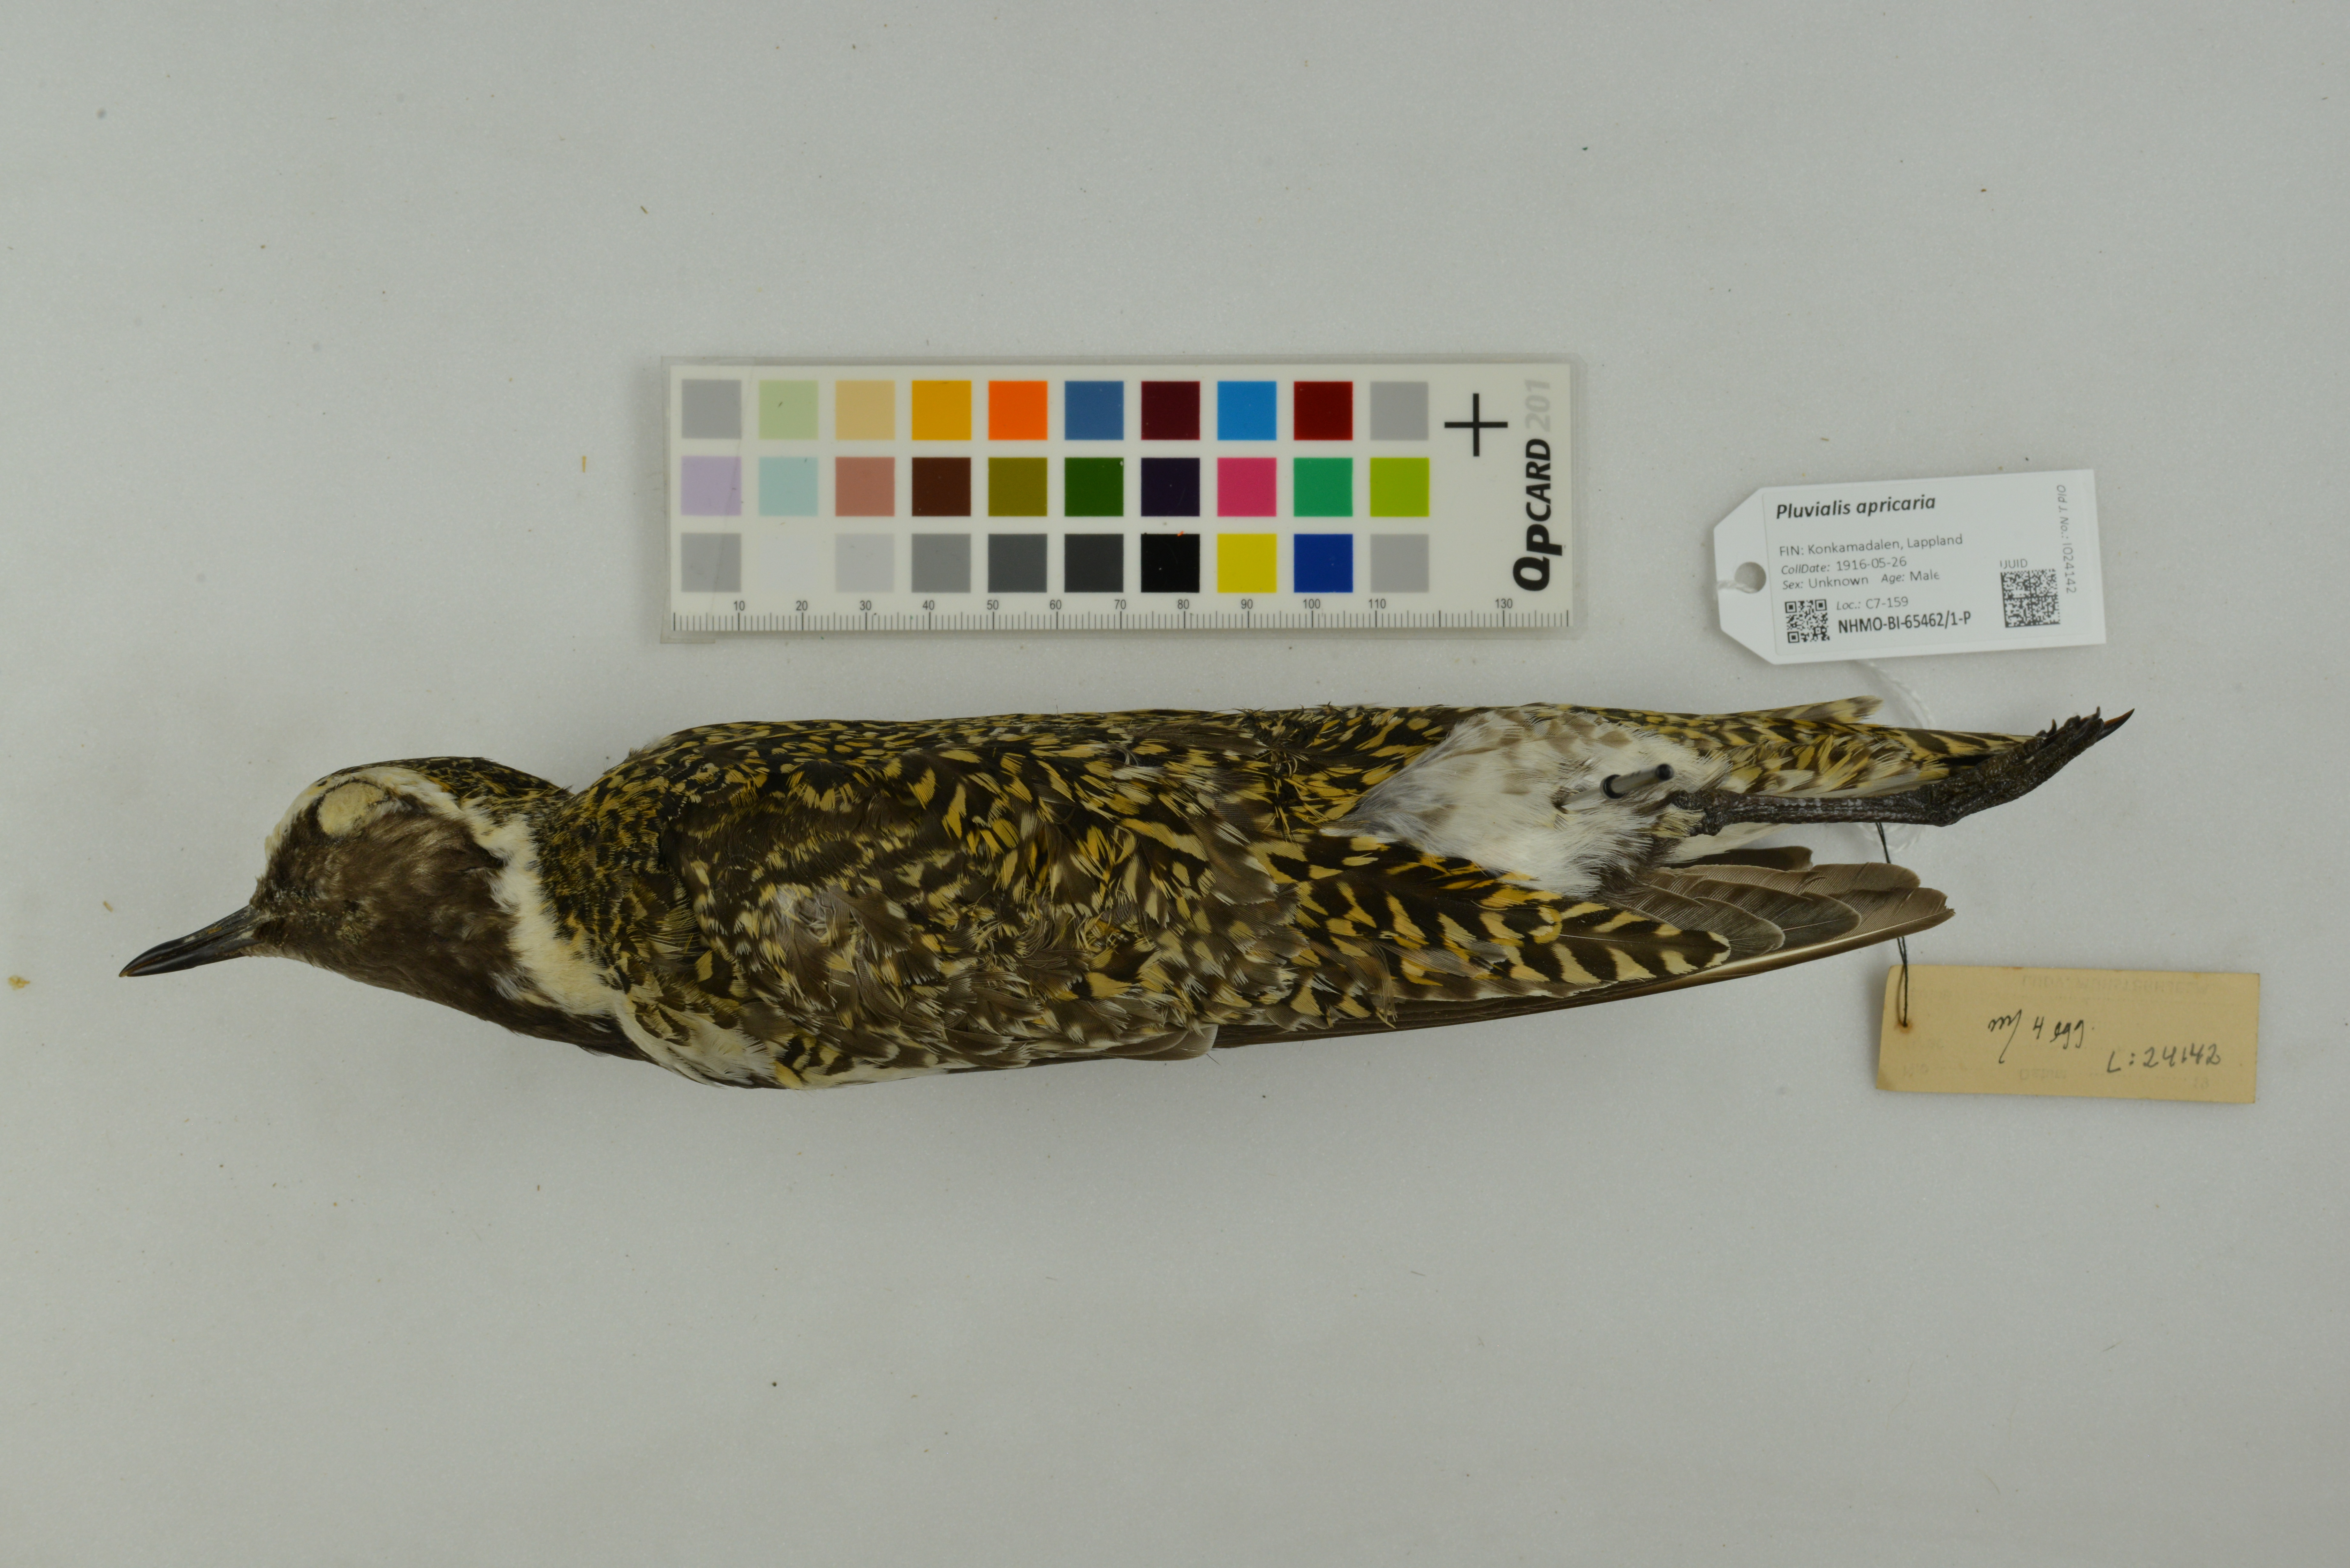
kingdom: Animalia
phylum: Chordata
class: Aves
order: Charadriiformes
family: Charadriidae
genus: Pluvialis
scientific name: Pluvialis apricaria
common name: European golden plover
